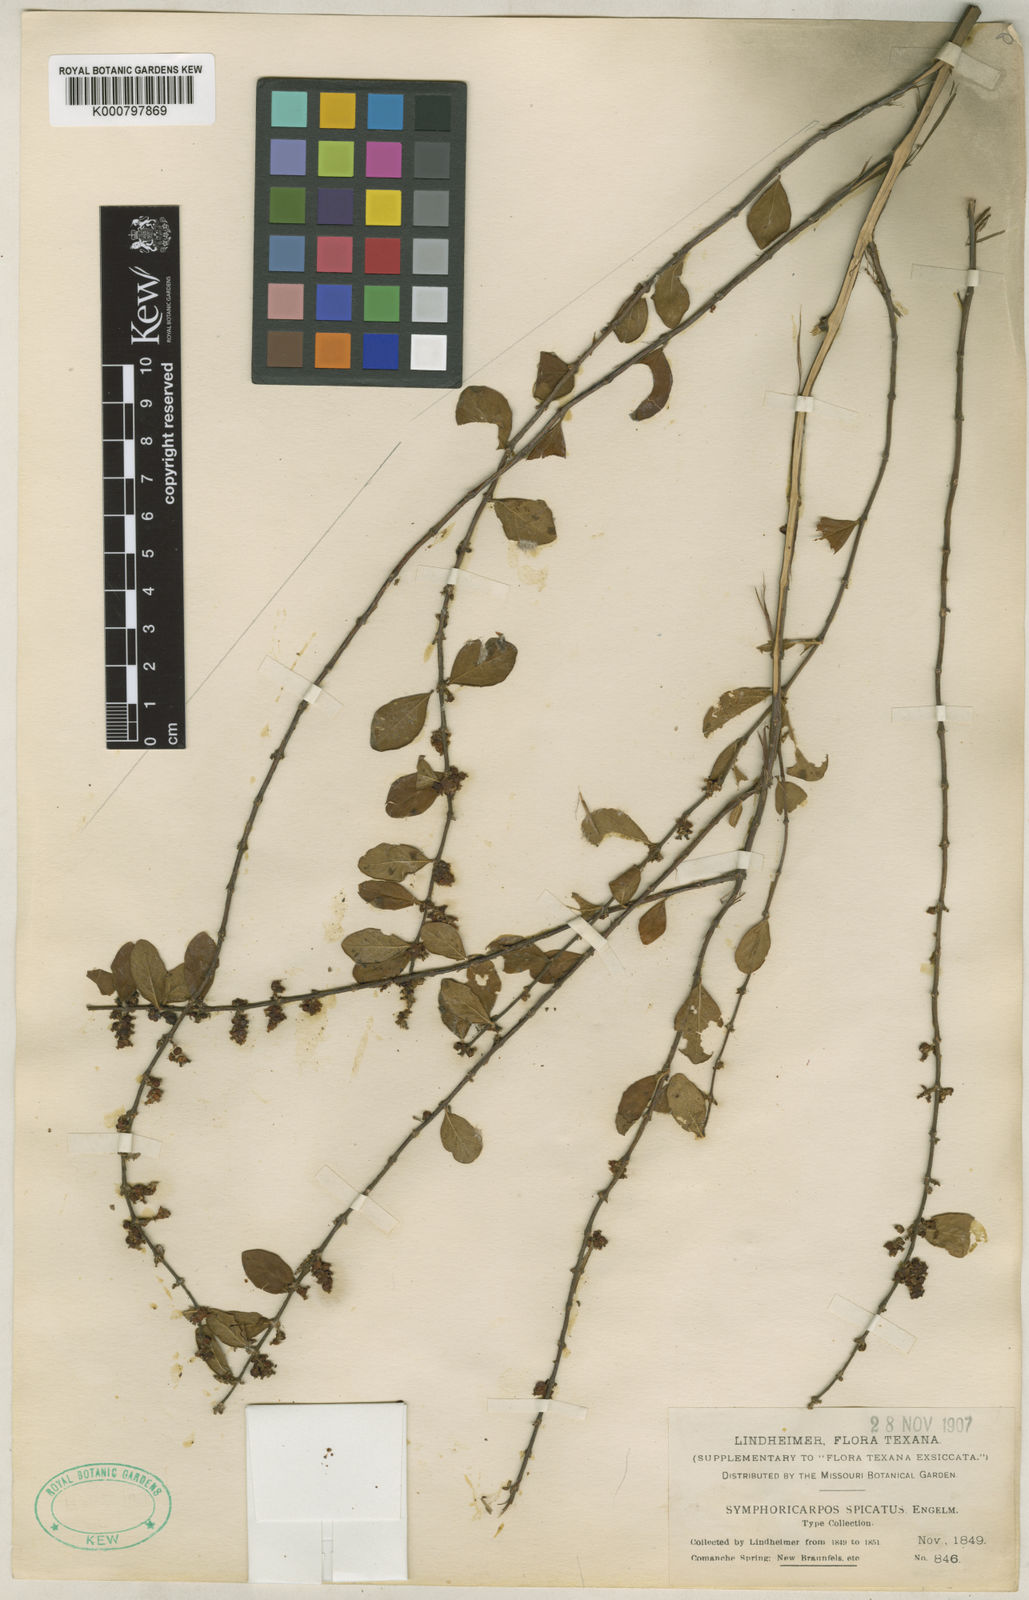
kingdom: Plantae
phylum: Tracheophyta
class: Magnoliopsida
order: Dipsacales
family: Caprifoliaceae
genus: Symphoricarpos
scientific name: Symphoricarpos orbiculatus
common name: Coralberry
